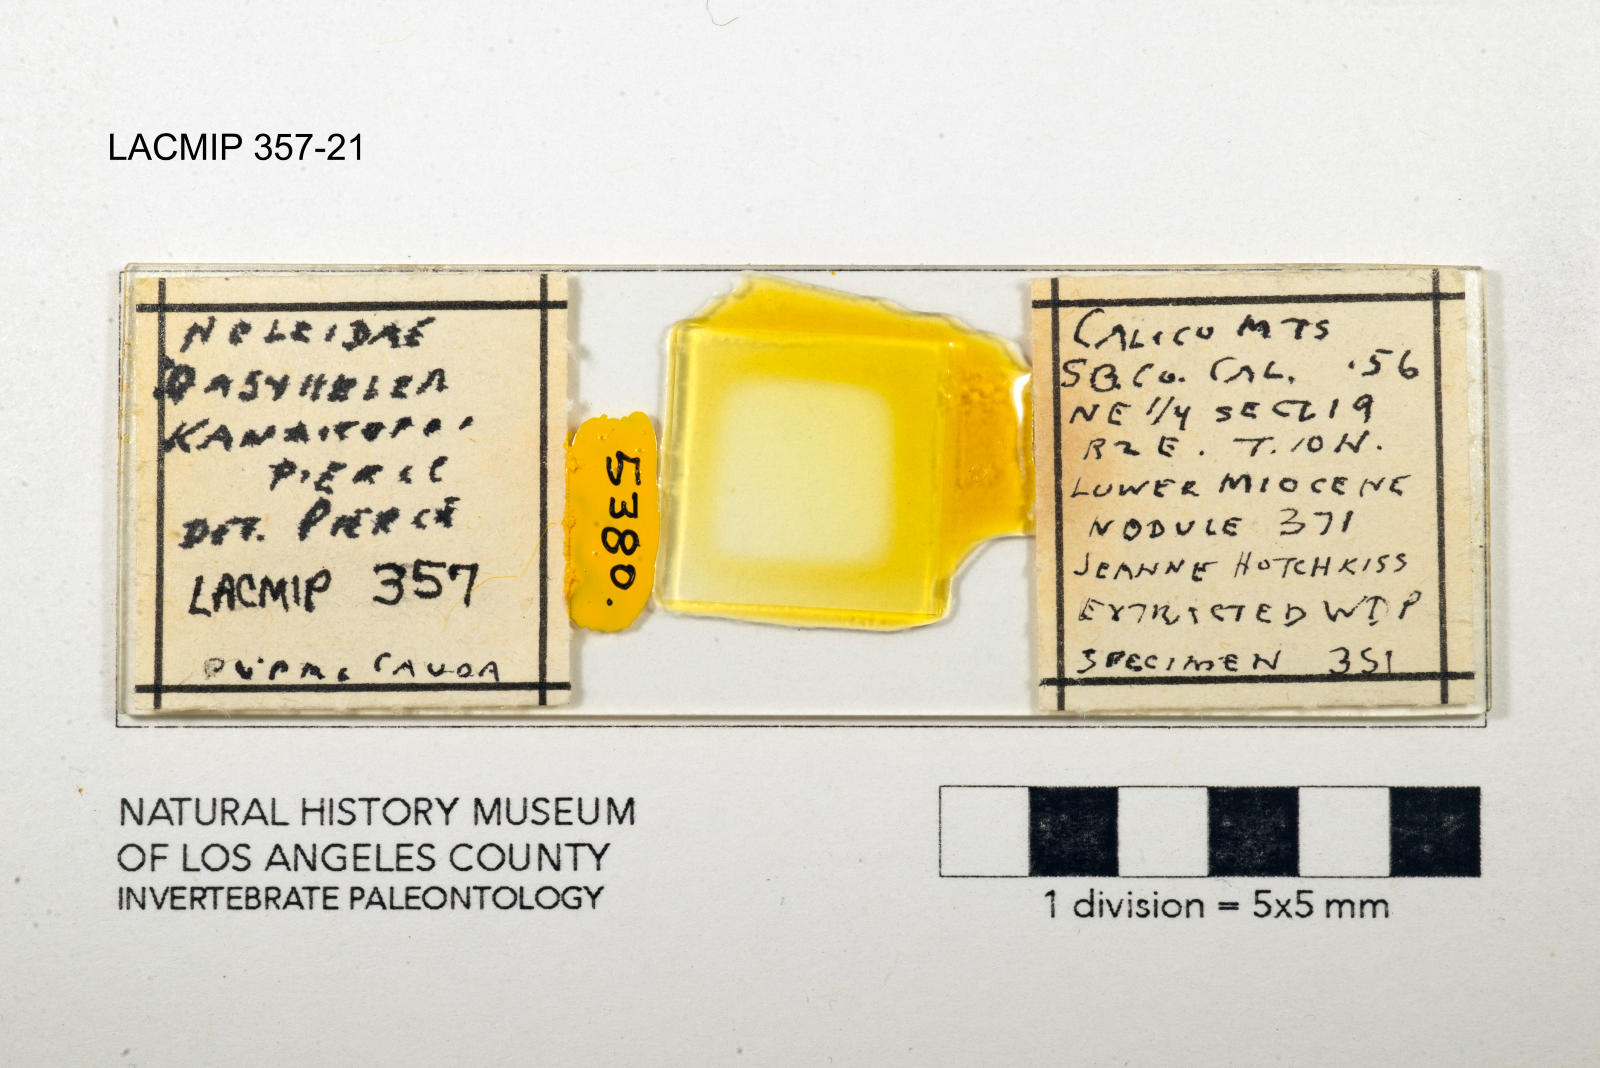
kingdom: Animalia
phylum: Arthropoda
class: Insecta
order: Diptera
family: Ceratopogonidae
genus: Dasyhelea
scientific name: Dasyhelea kanakoffi
